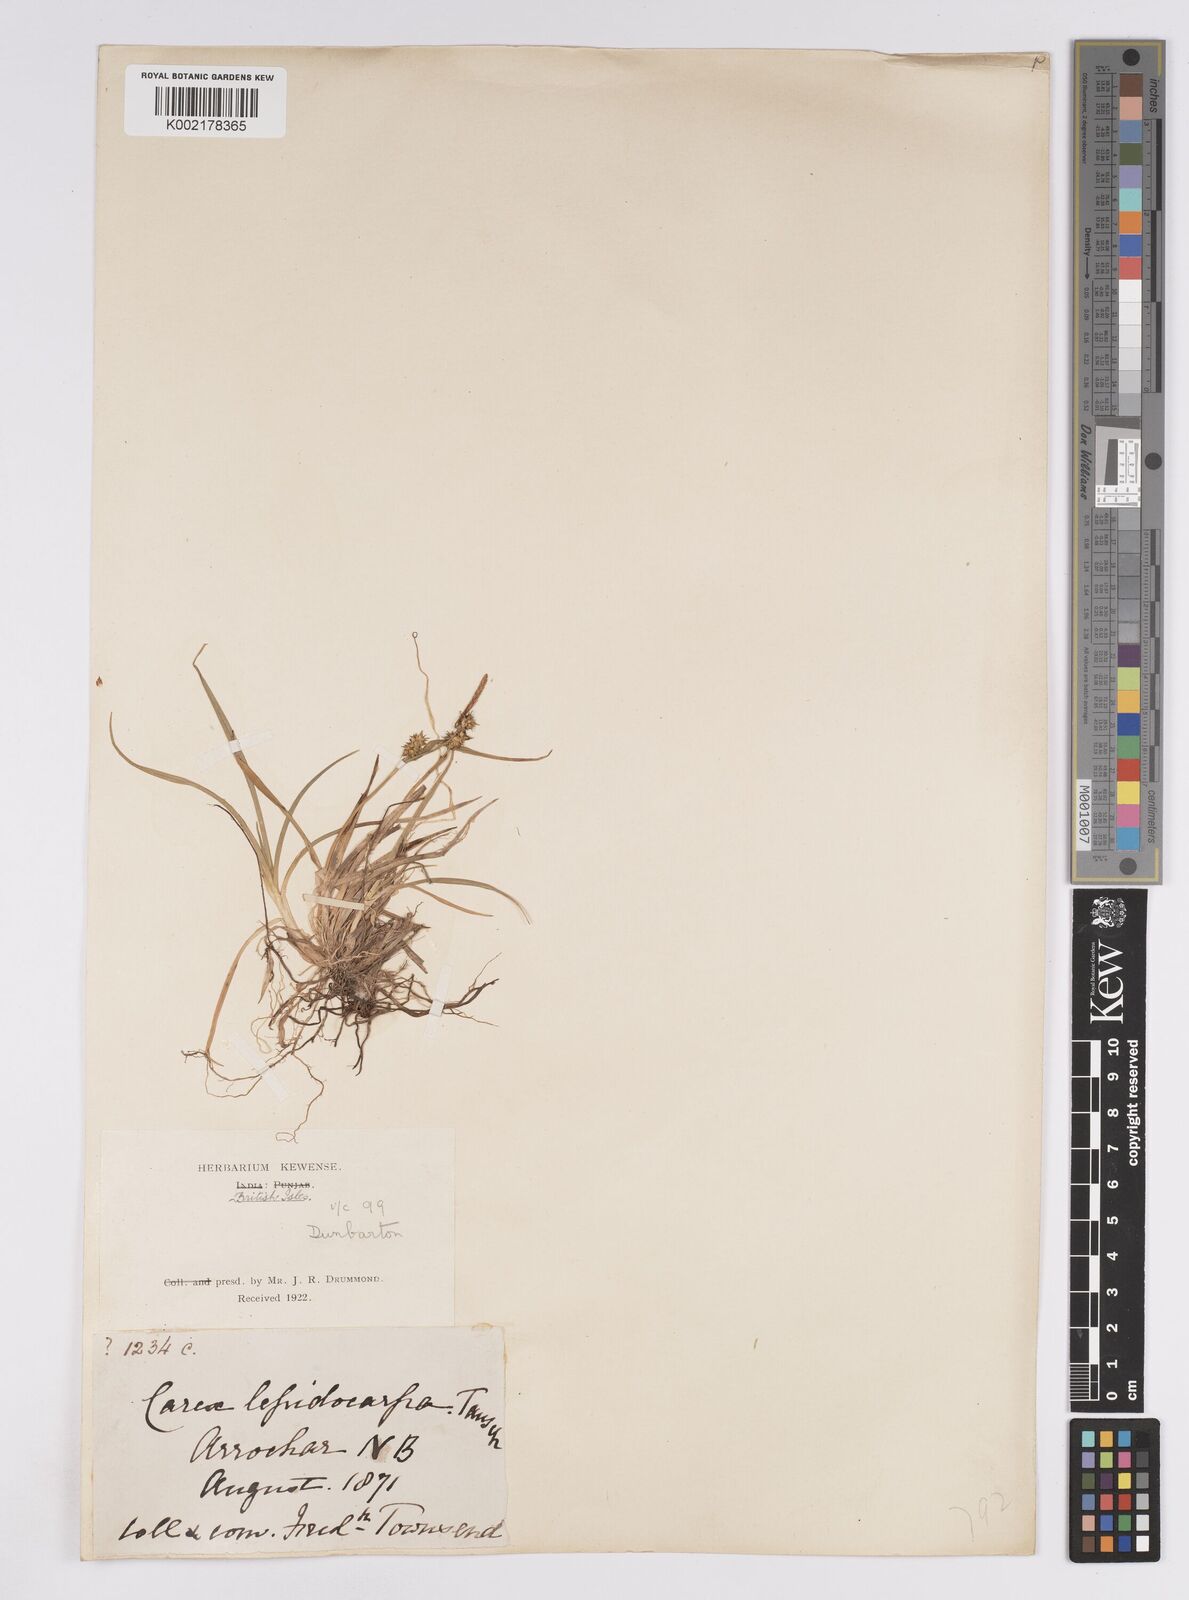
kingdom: Plantae
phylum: Tracheophyta
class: Liliopsida
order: Poales
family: Cyperaceae
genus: Carex
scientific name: Carex demissa
